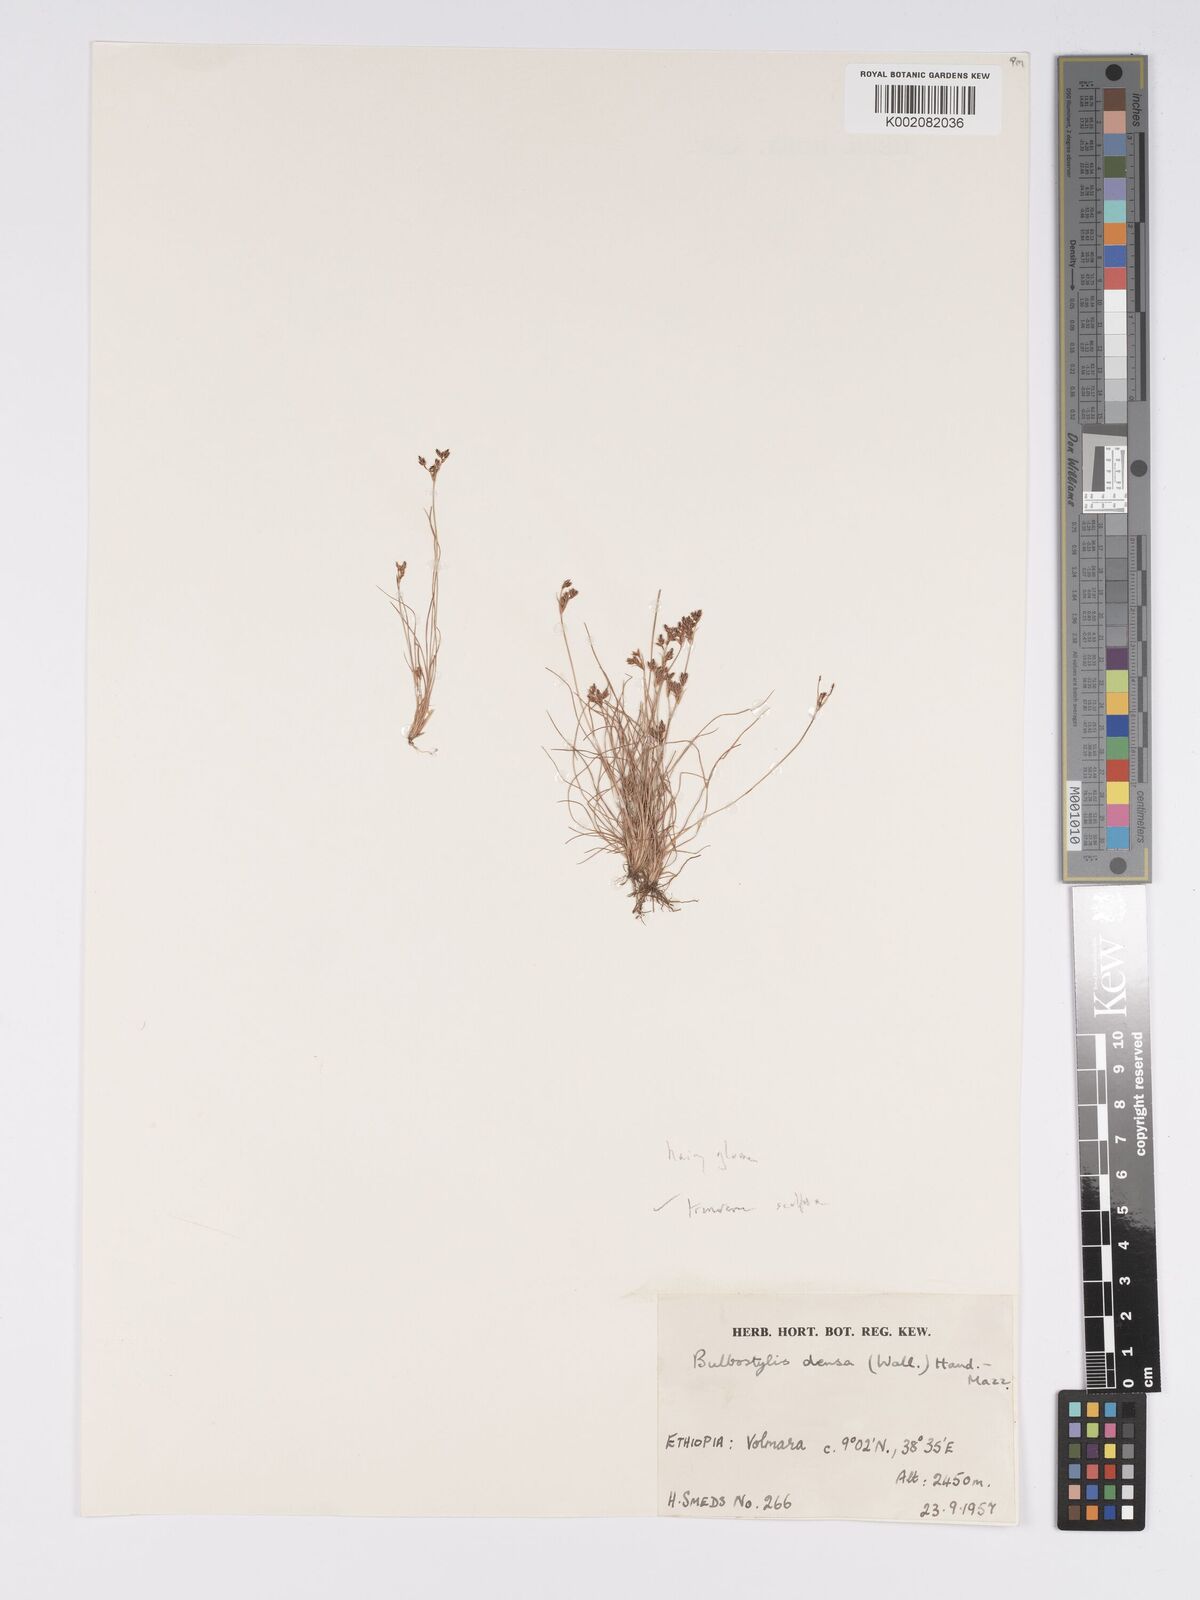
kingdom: Plantae
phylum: Tracheophyta
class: Liliopsida
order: Poales
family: Cyperaceae
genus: Bulbostylis
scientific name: Bulbostylis pusilla
